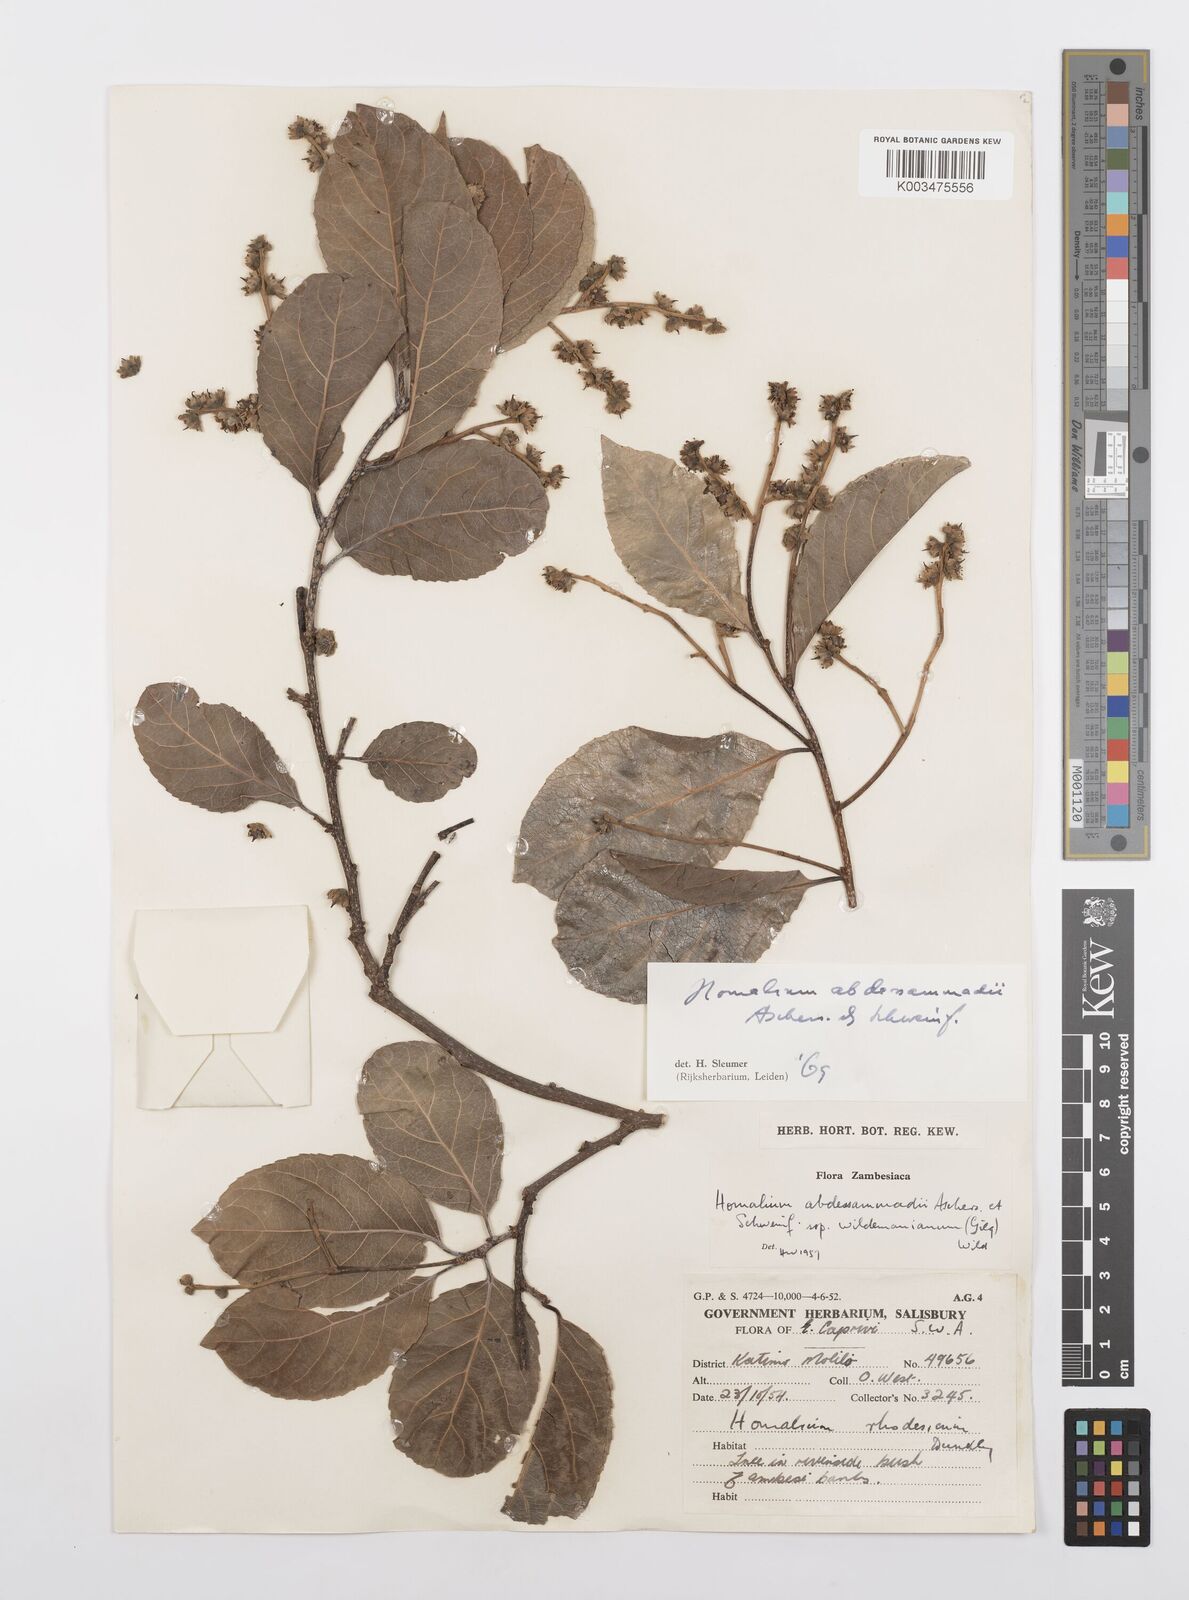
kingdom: Plantae
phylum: Tracheophyta
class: Magnoliopsida
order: Malpighiales
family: Salicaceae
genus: Homalium
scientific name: Homalium abdessammadii
